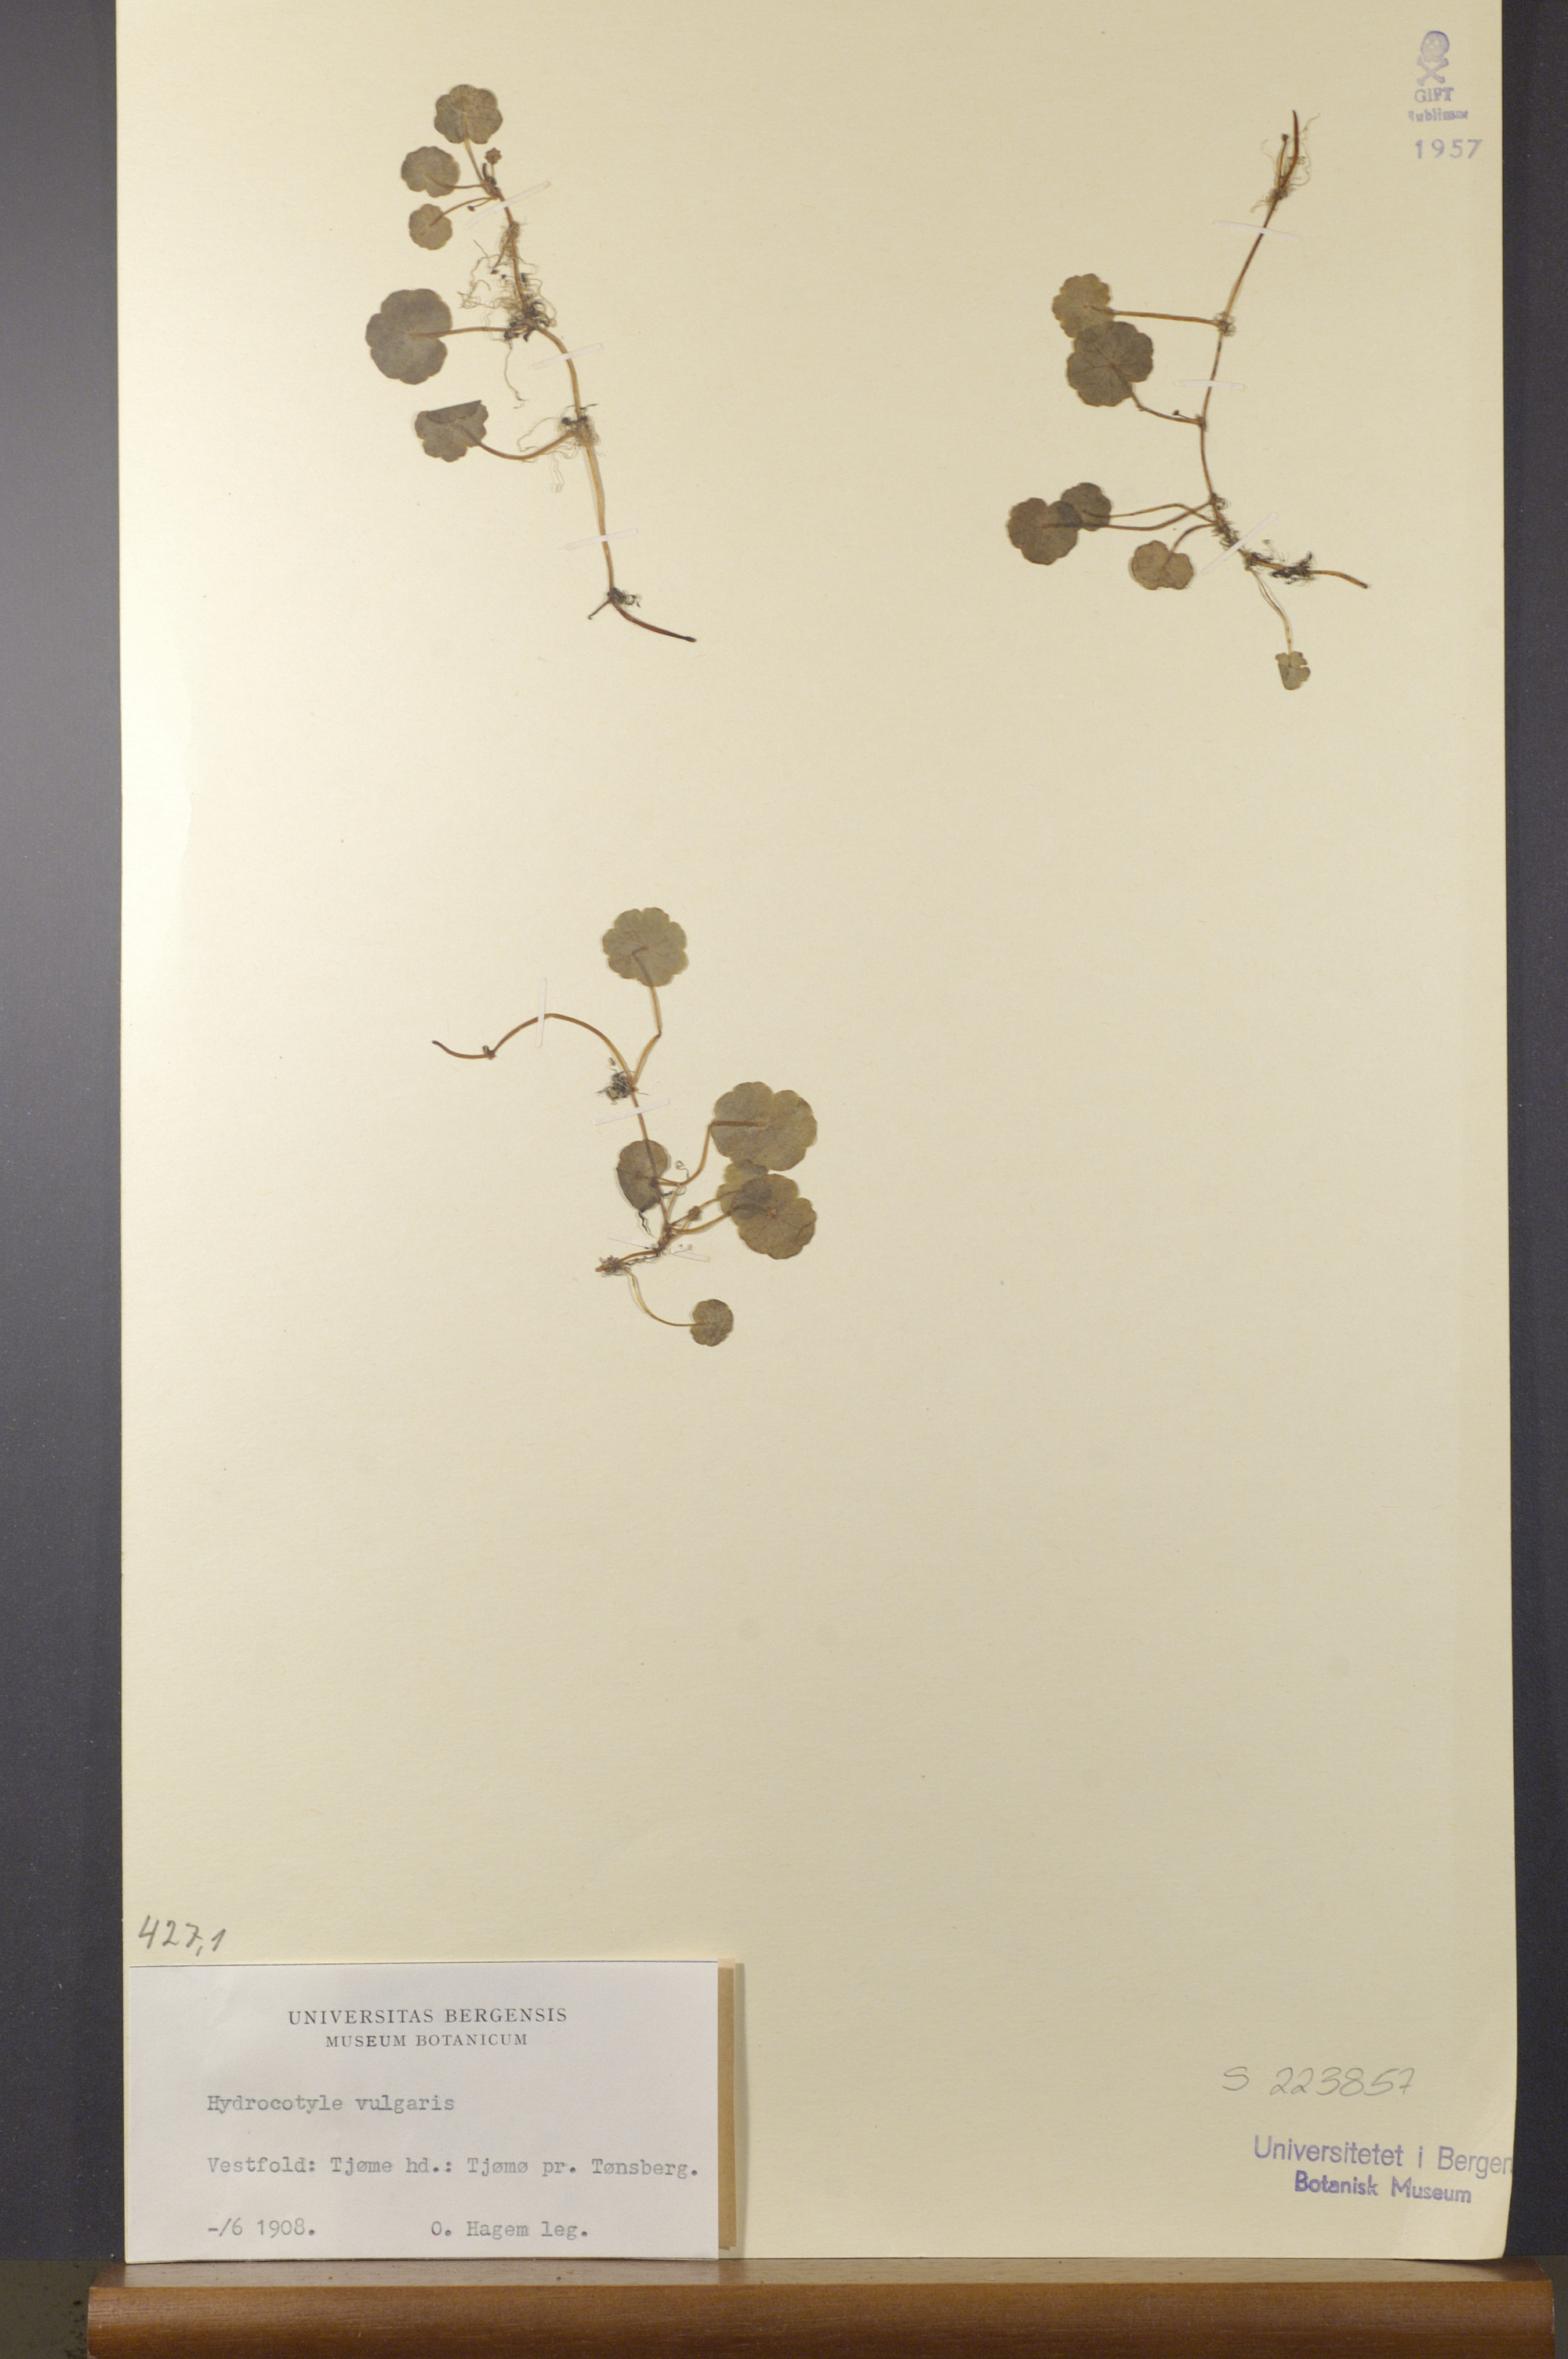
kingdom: Plantae
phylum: Tracheophyta
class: Magnoliopsida
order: Apiales
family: Araliaceae
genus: Hydrocotyle
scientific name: Hydrocotyle vulgaris
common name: Marsh pennywort
